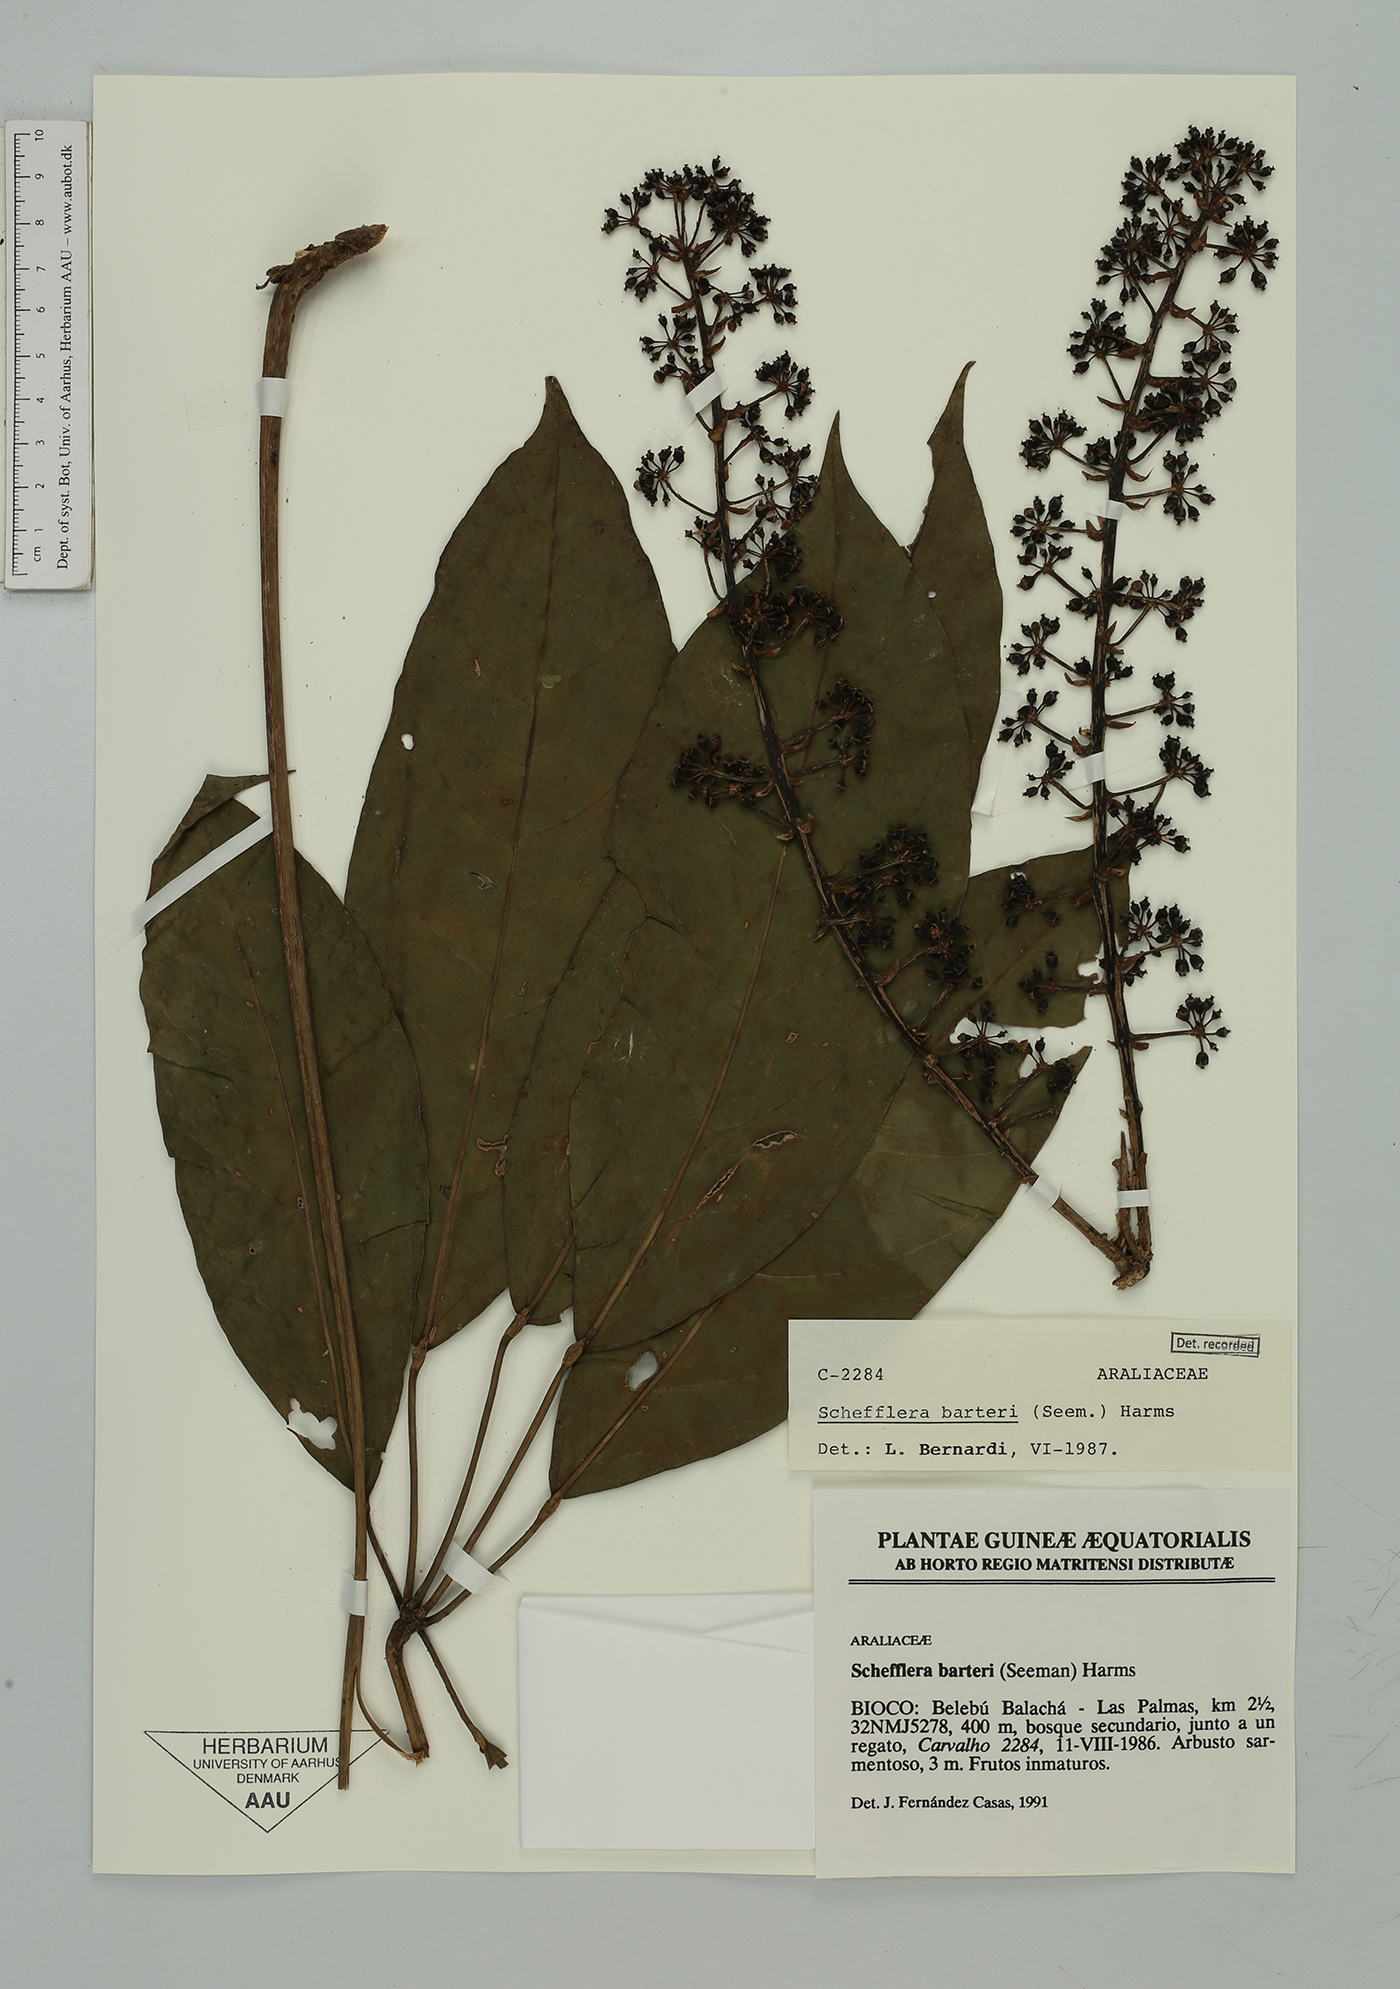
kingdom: Plantae
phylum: Tracheophyta
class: Magnoliopsida
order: Apiales
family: Araliaceae
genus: Astropanax
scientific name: Astropanax barteri
